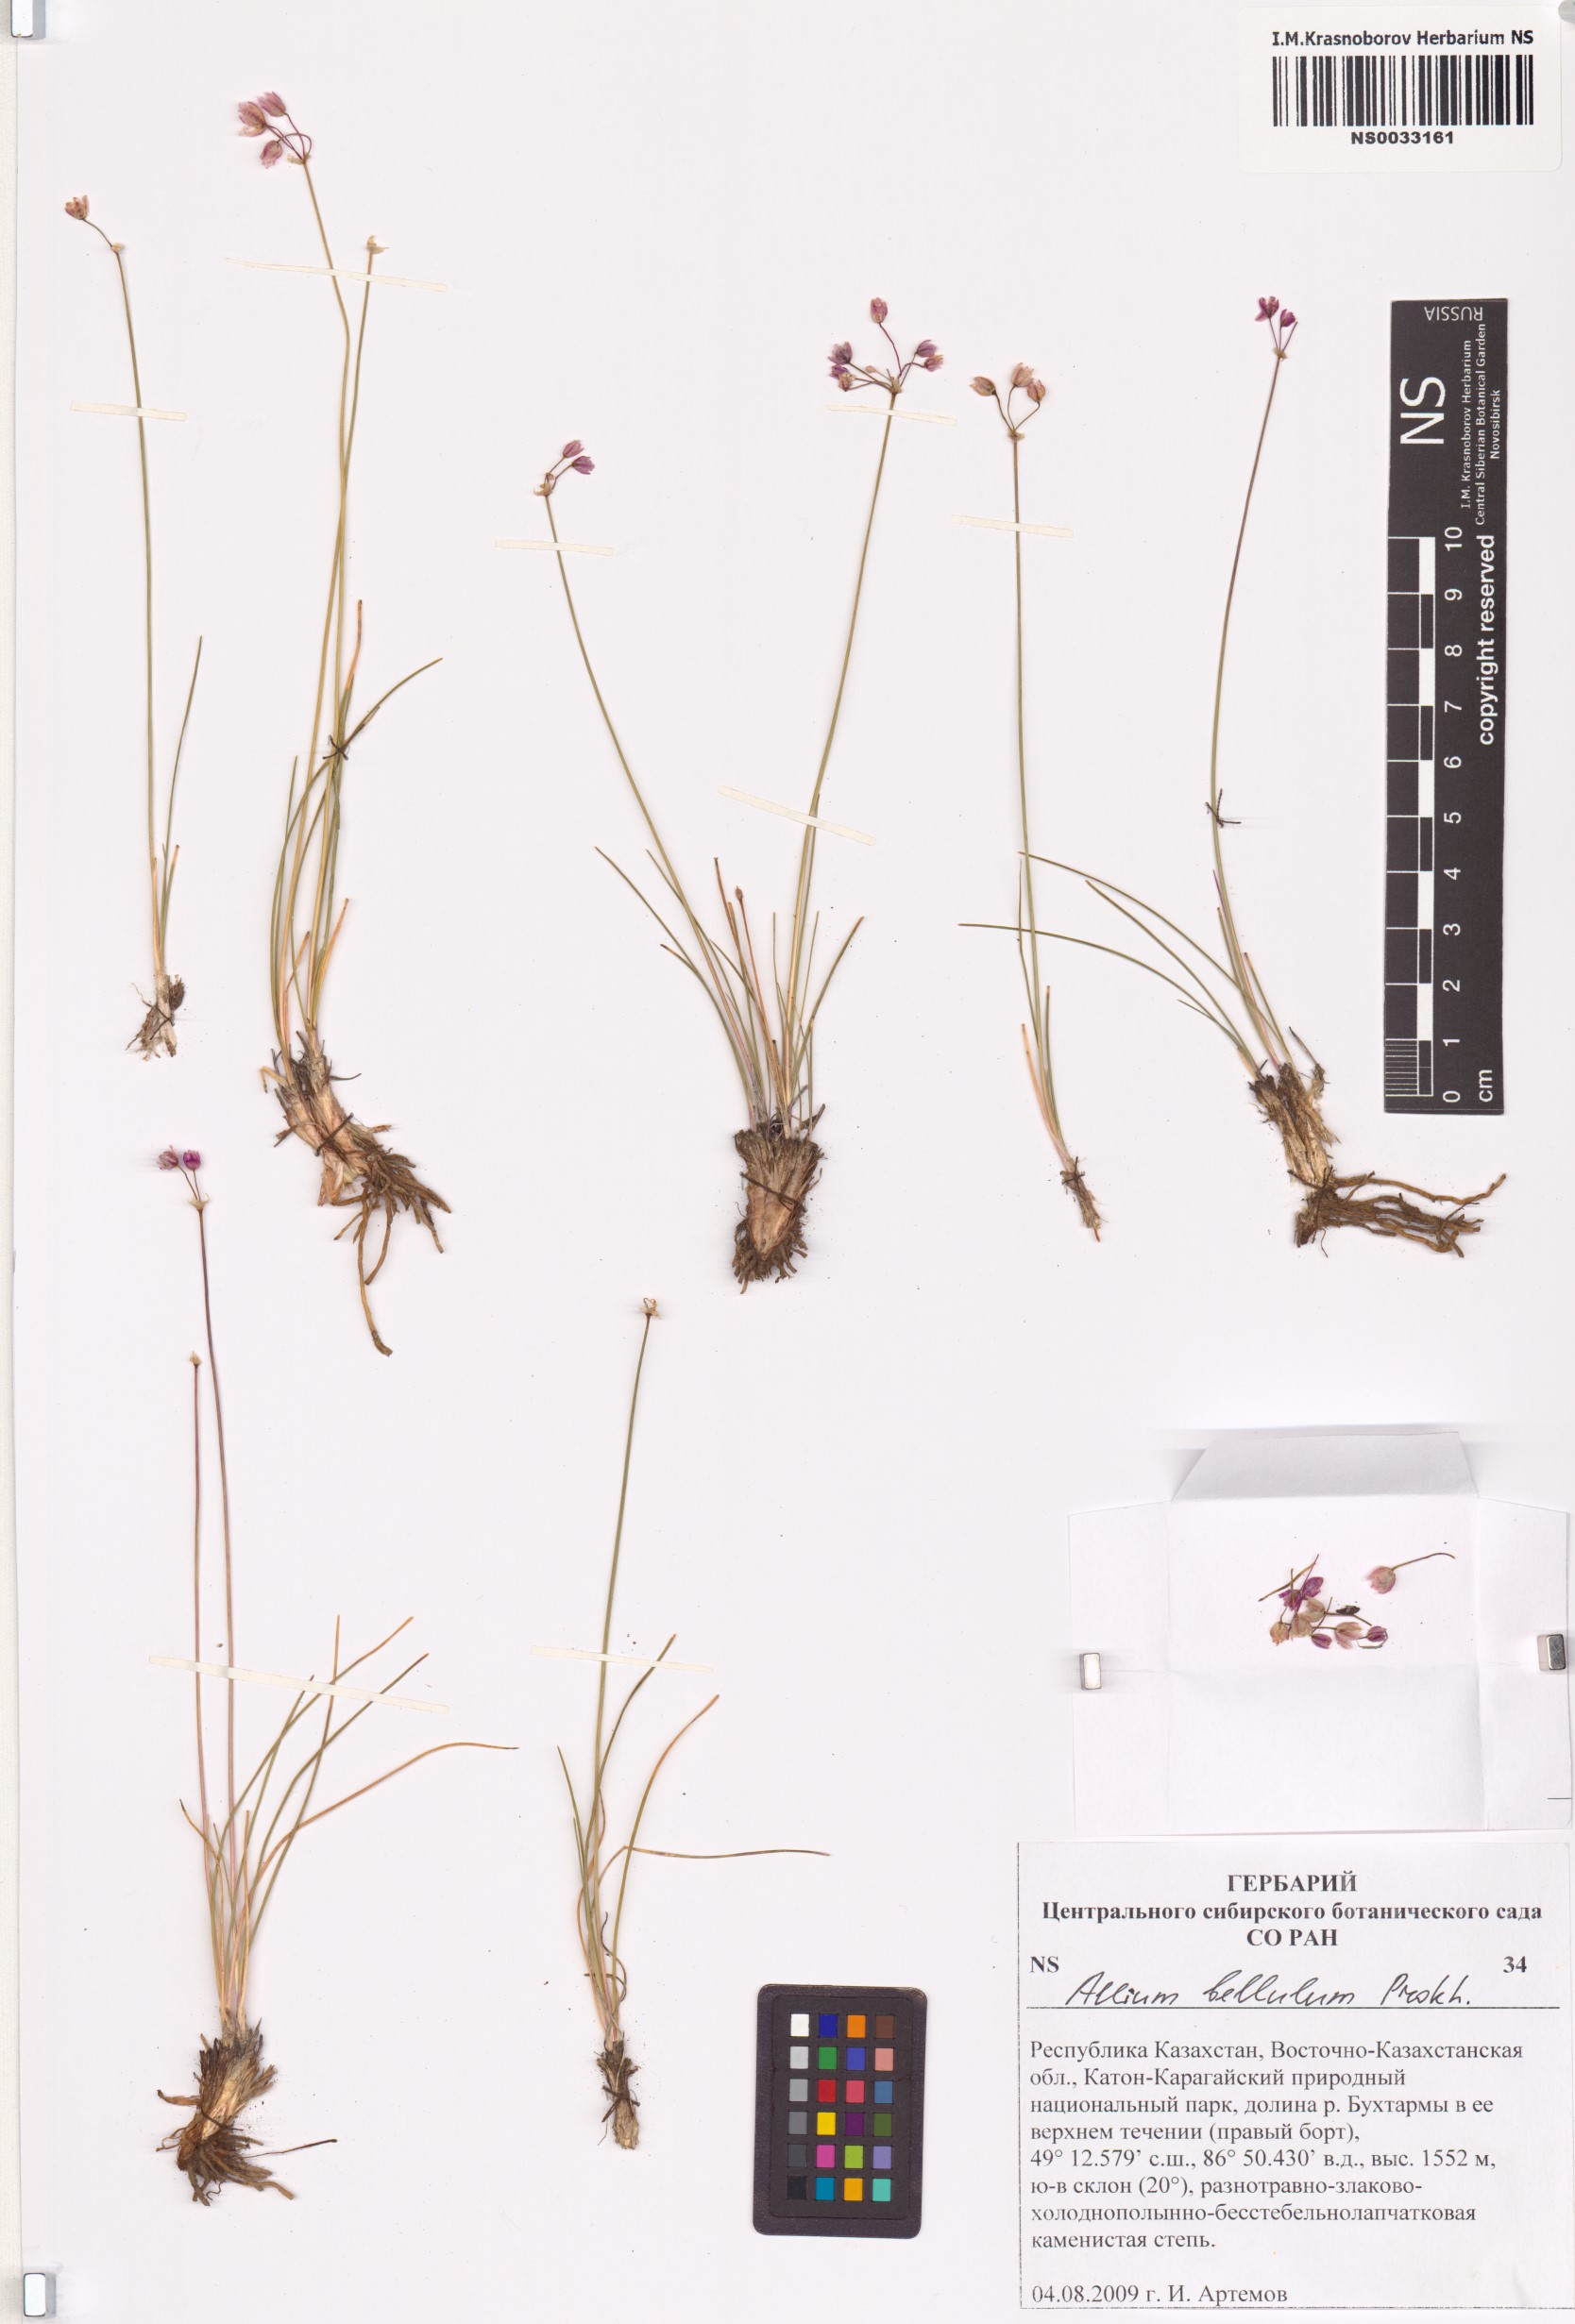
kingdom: Plantae
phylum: Tracheophyta
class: Liliopsida
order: Asparagales
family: Amaryllidaceae
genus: Allium
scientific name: Allium bellulum
